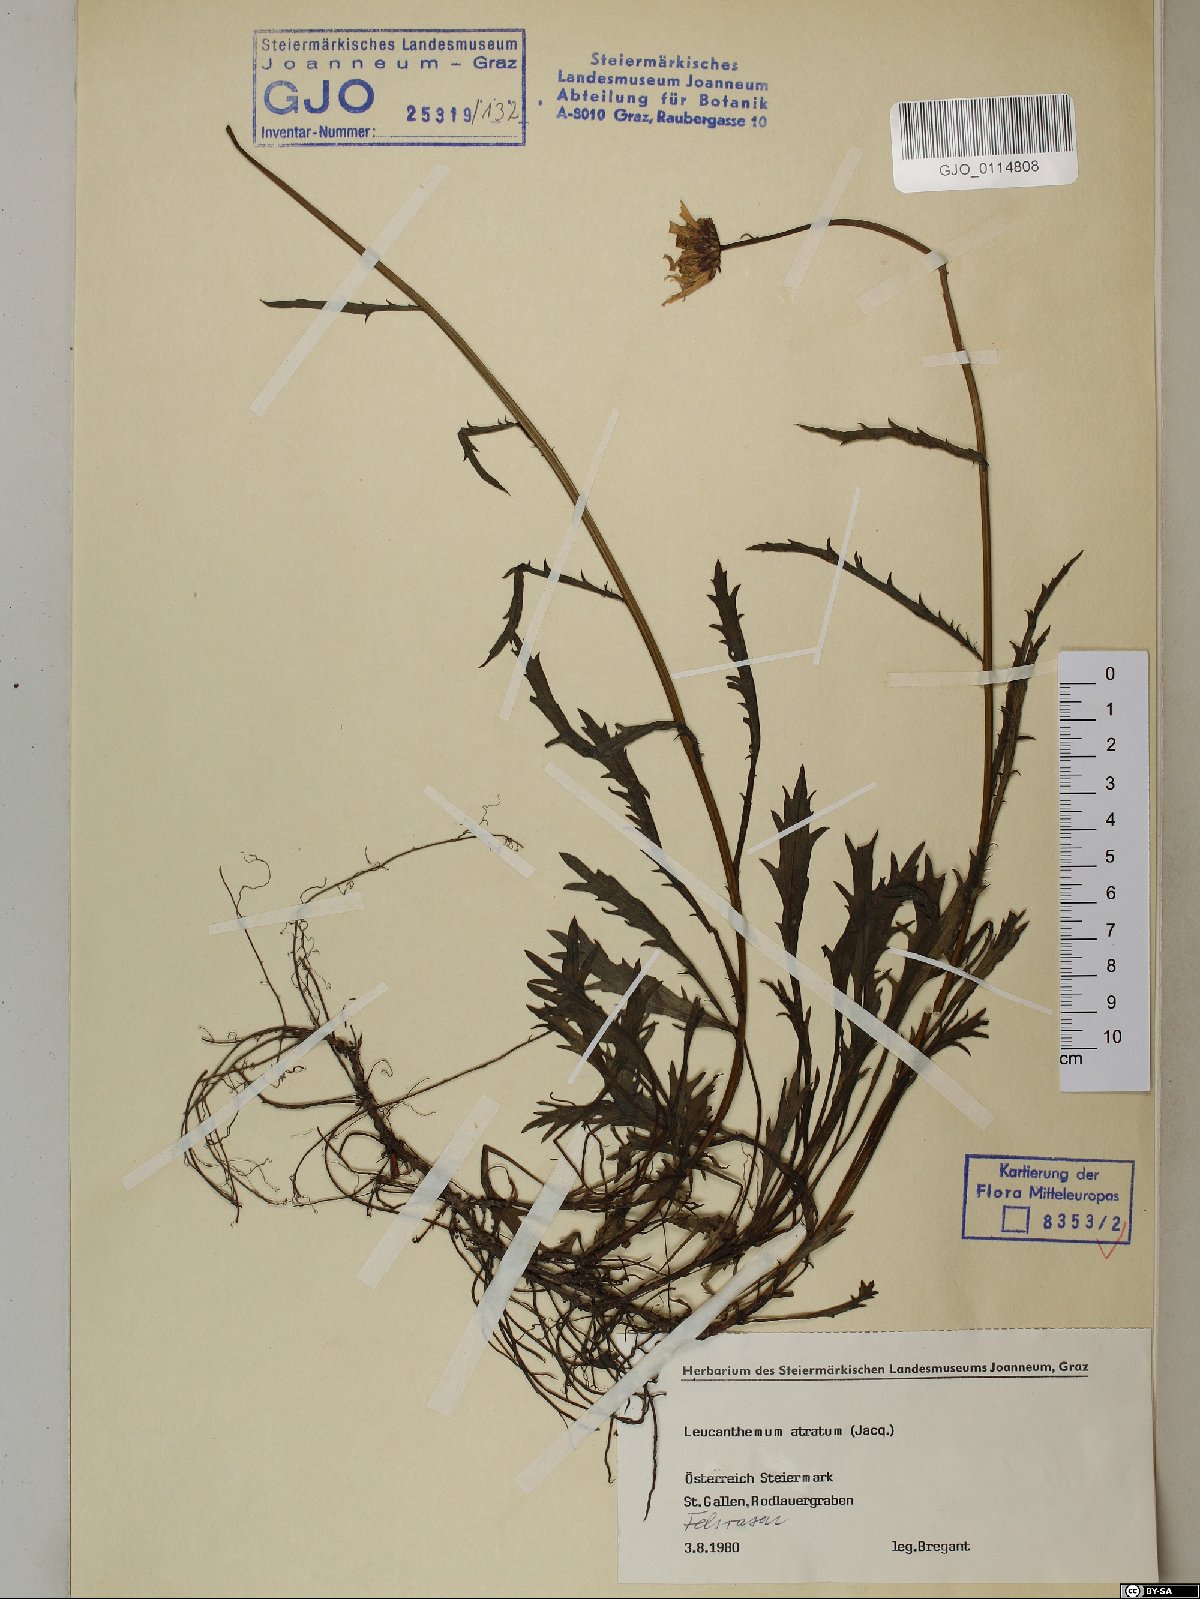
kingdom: Plantae
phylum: Tracheophyta
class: Magnoliopsida
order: Asterales
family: Asteraceae
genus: Leucanthemum
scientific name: Leucanthemum atratum
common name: Saw-leaved moon-daisy
